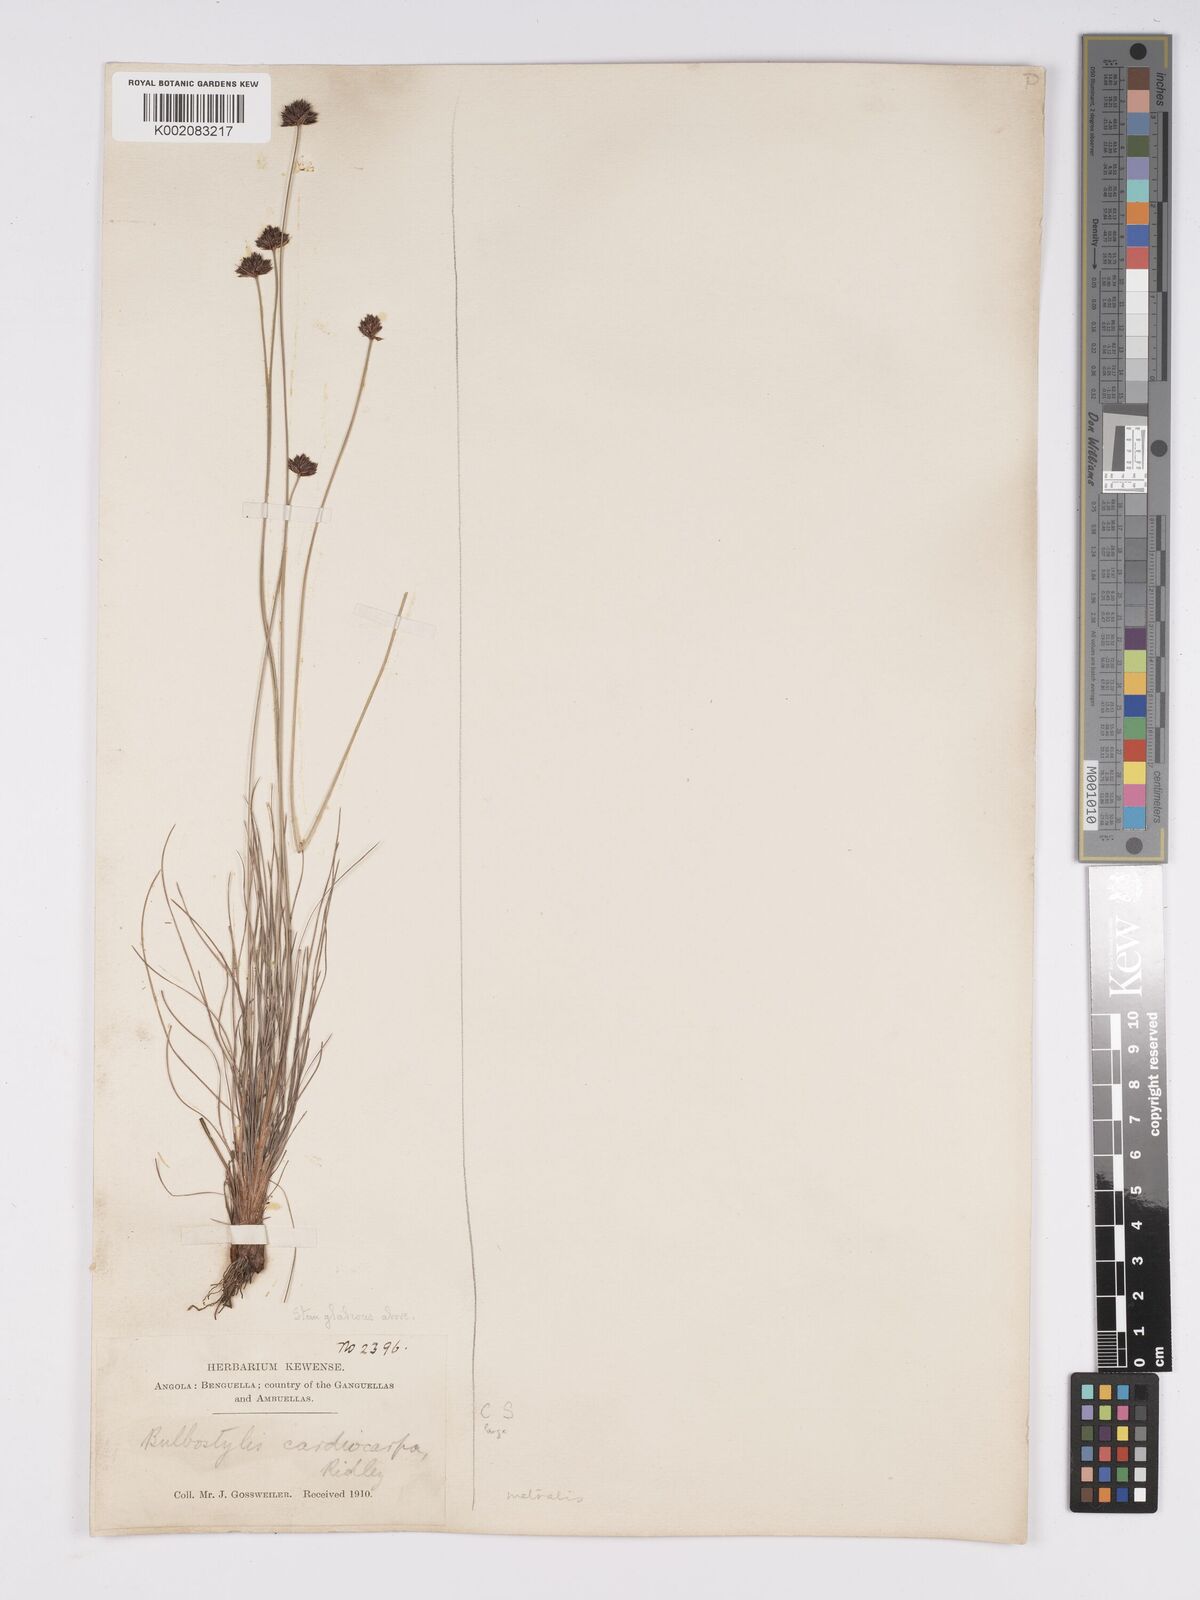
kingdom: Plantae
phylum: Tracheophyta
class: Liliopsida
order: Poales
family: Cyperaceae
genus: Bulbostylis
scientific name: Bulbostylis filamentosa
